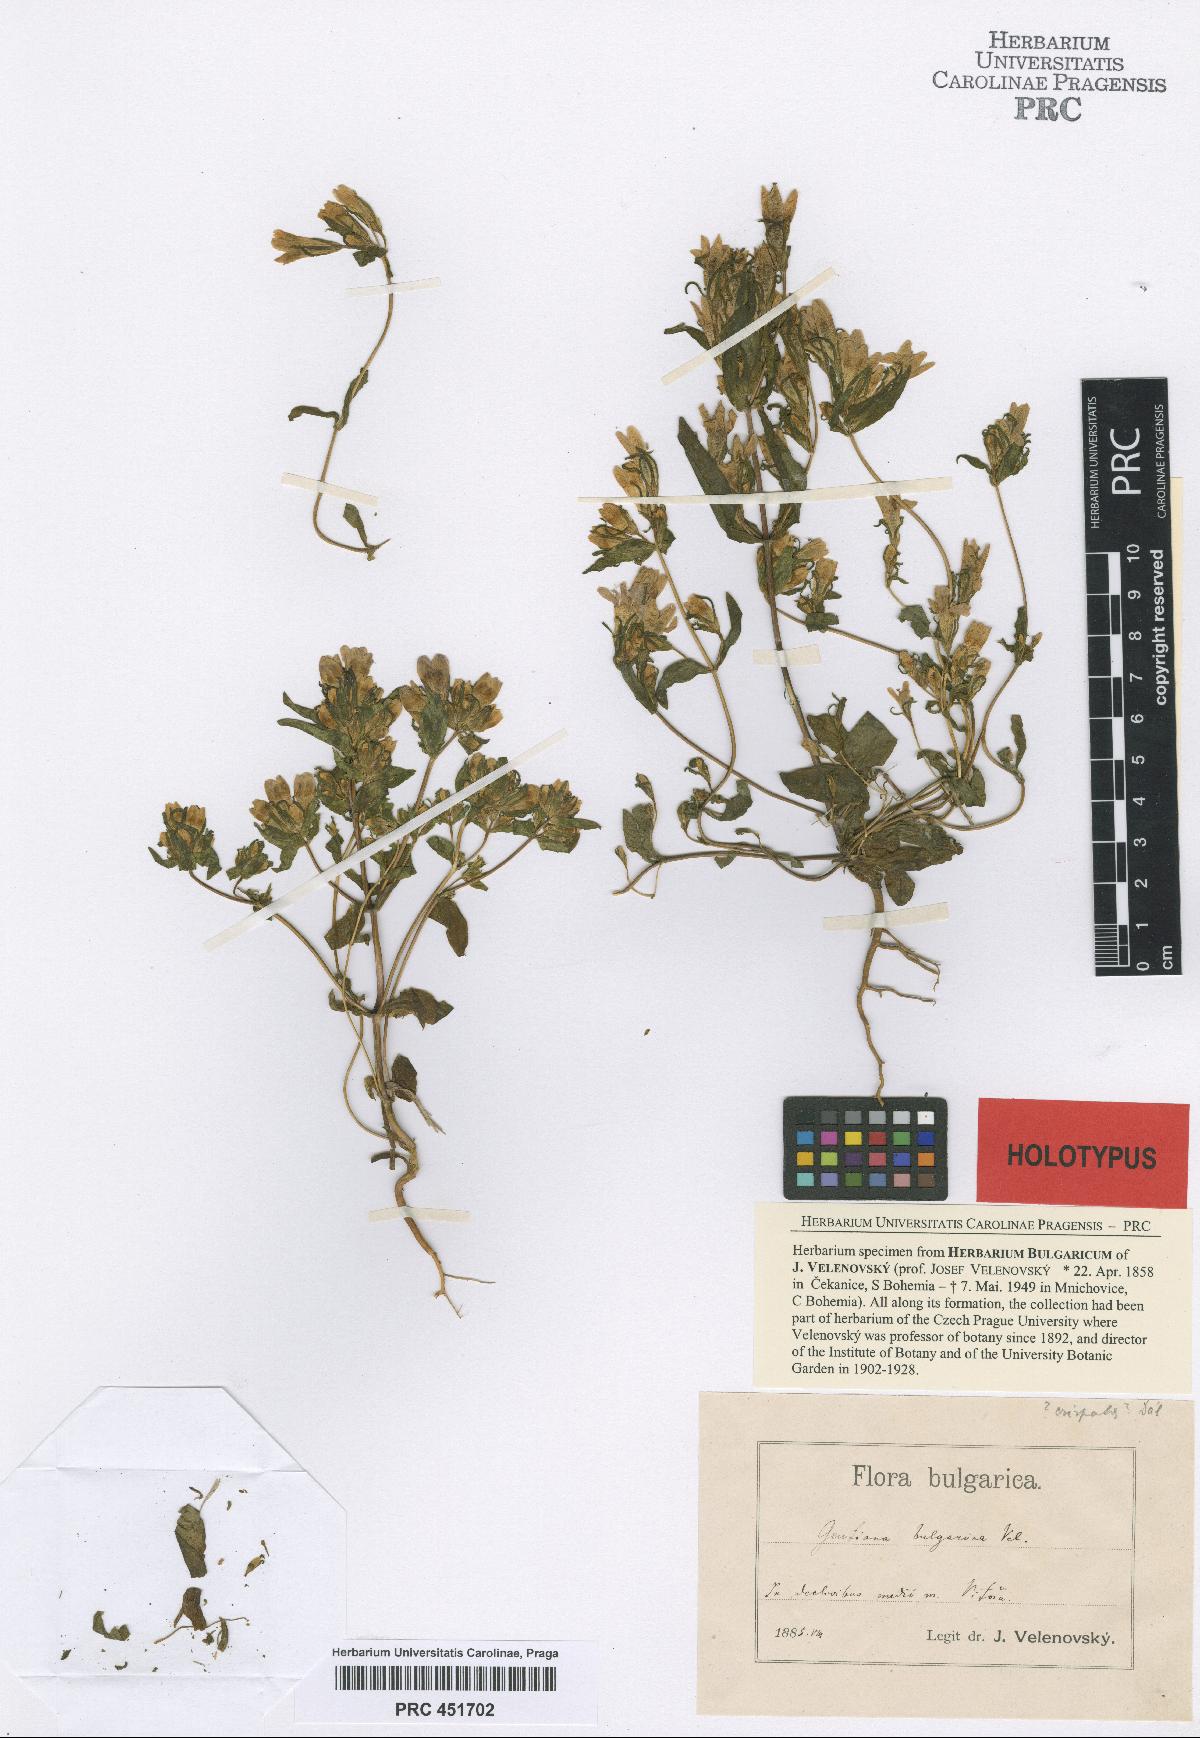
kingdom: Plantae
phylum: Tracheophyta
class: Magnoliopsida
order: Gentianales
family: Gentianaceae
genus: Gentianella
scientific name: Gentianella bulgarica
